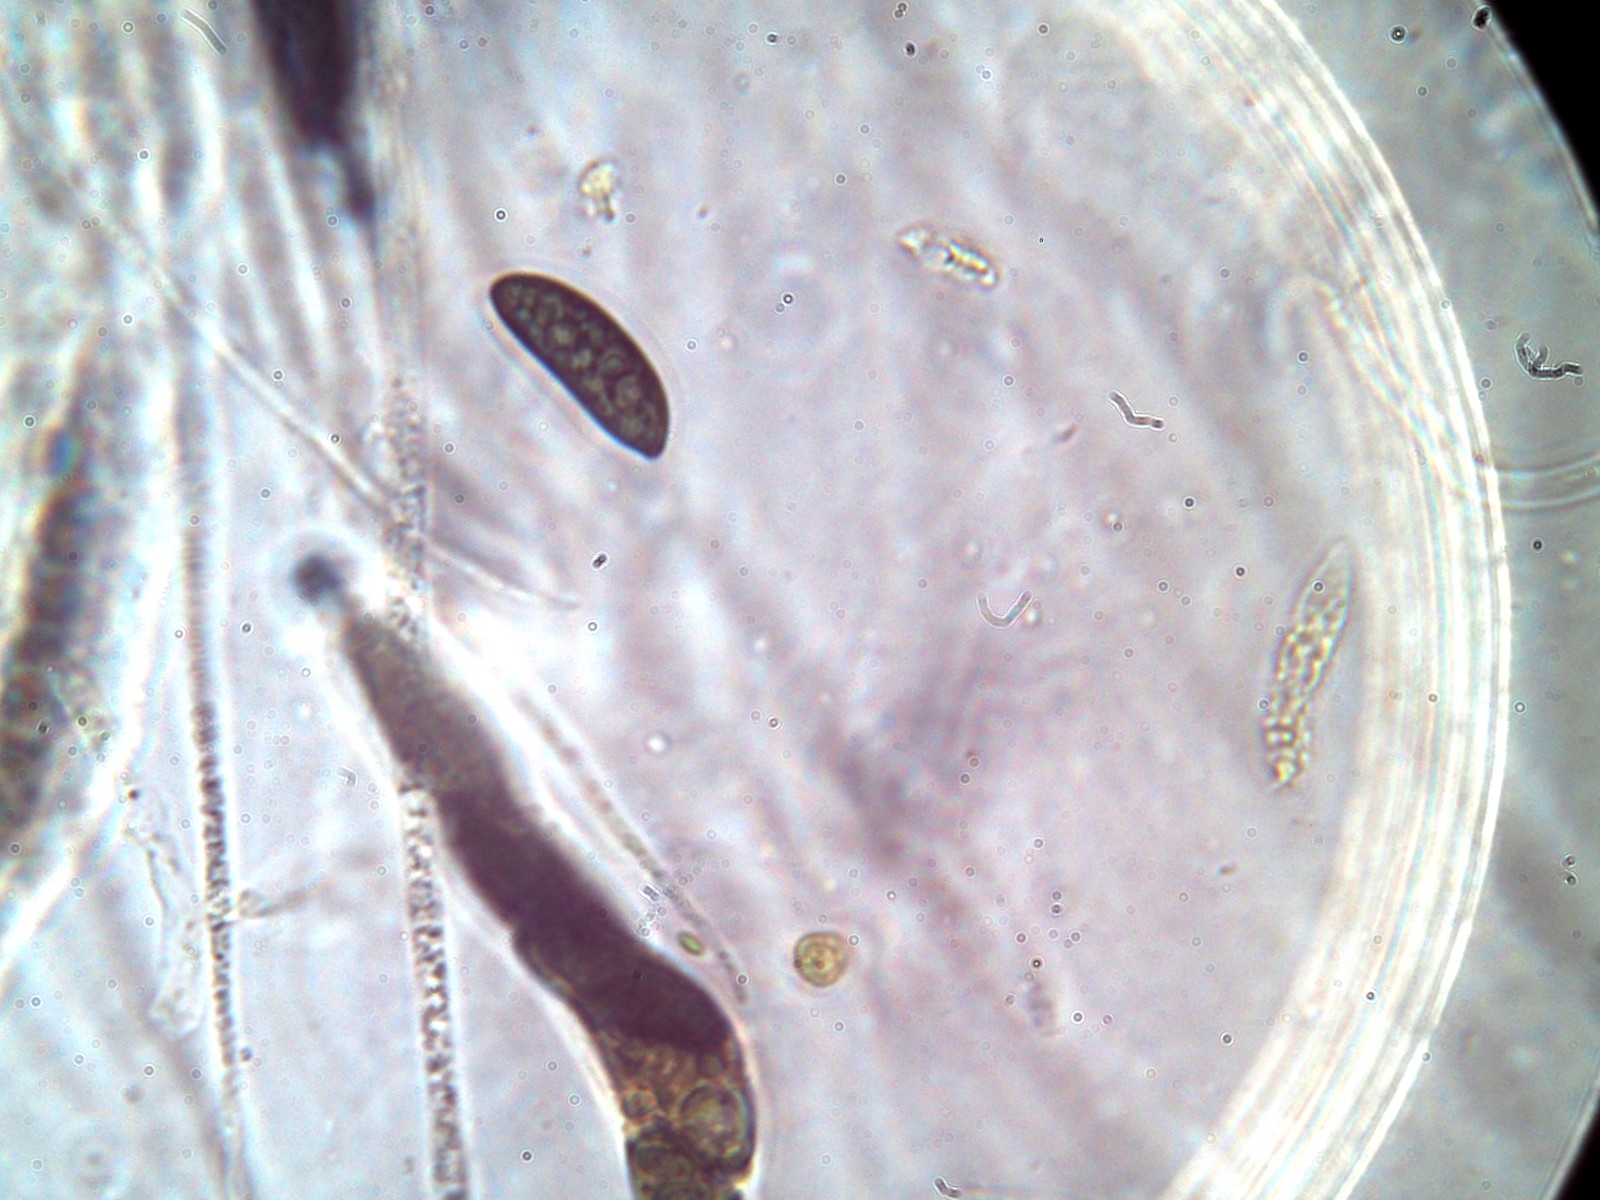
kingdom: Fungi
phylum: Ascomycota
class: Sordariomycetes
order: Xylariales
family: Xylariaceae
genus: Rosellinia
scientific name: Rosellinia subsimilis
